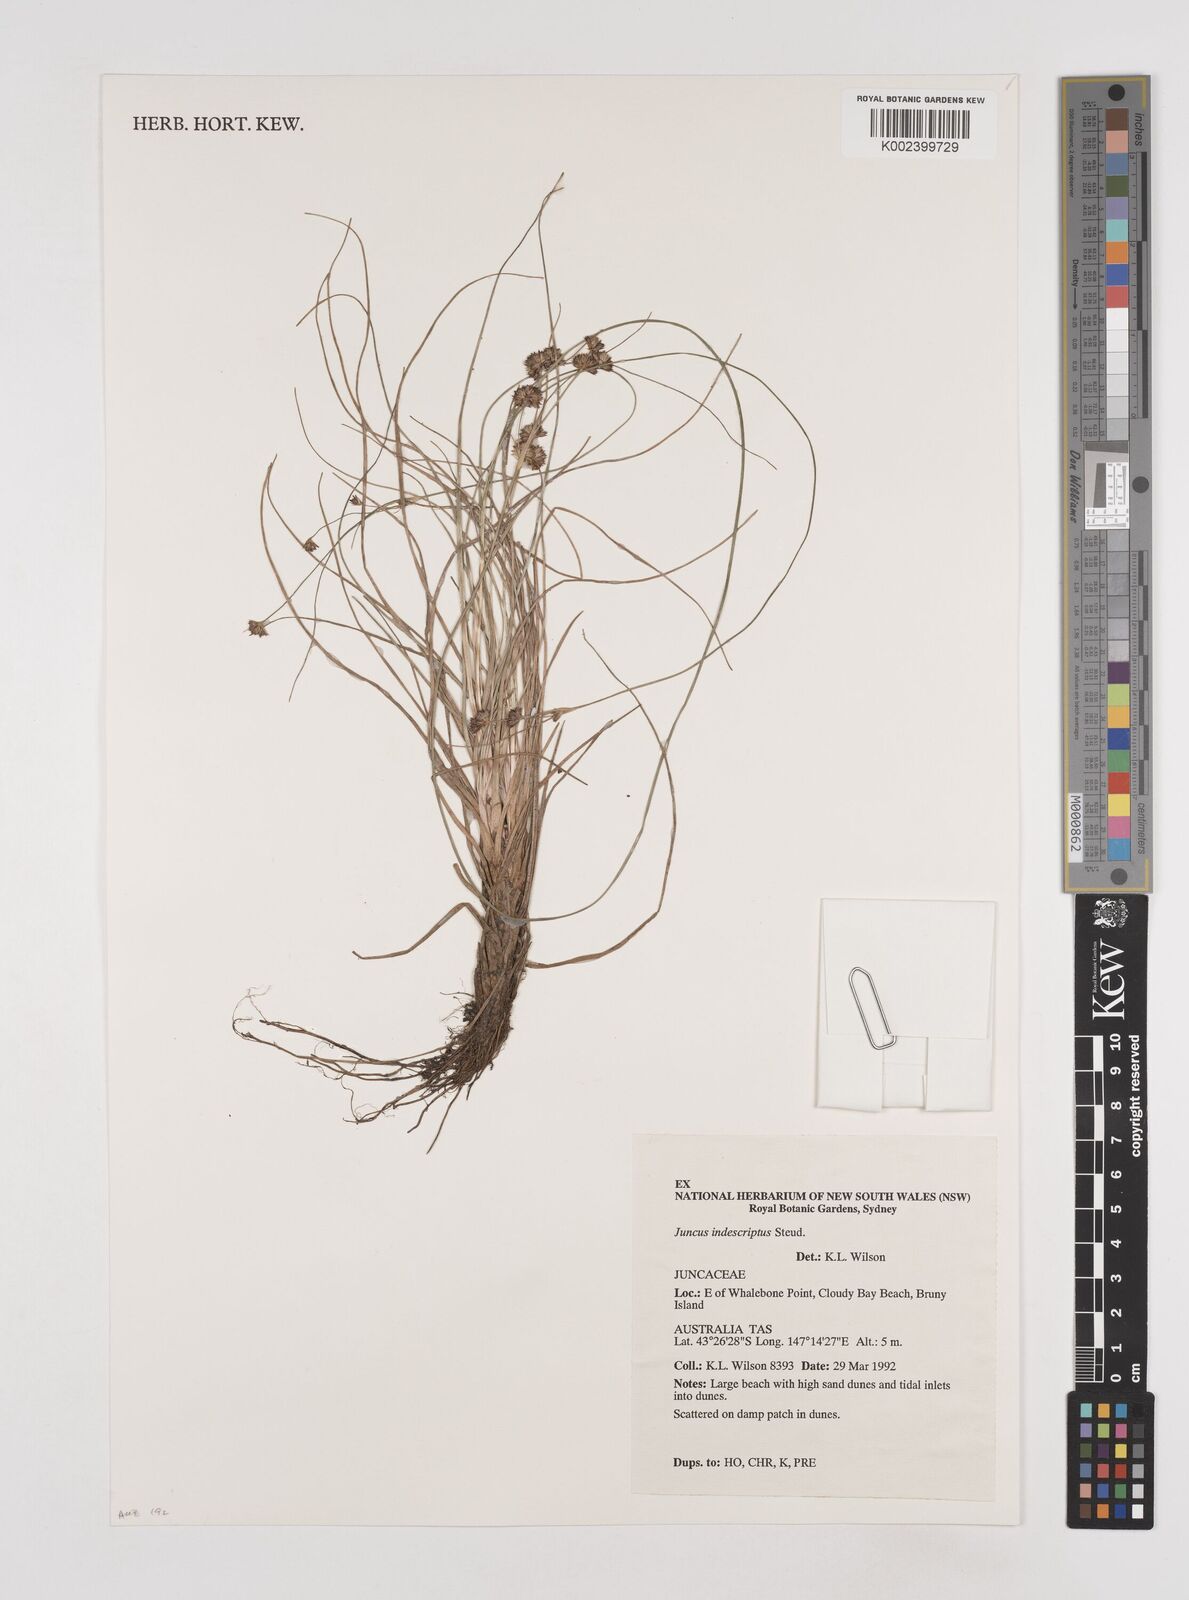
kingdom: Plantae
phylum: Tracheophyta
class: Liliopsida
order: Poales
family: Juncaceae
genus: Juncus
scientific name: Juncus capensis
